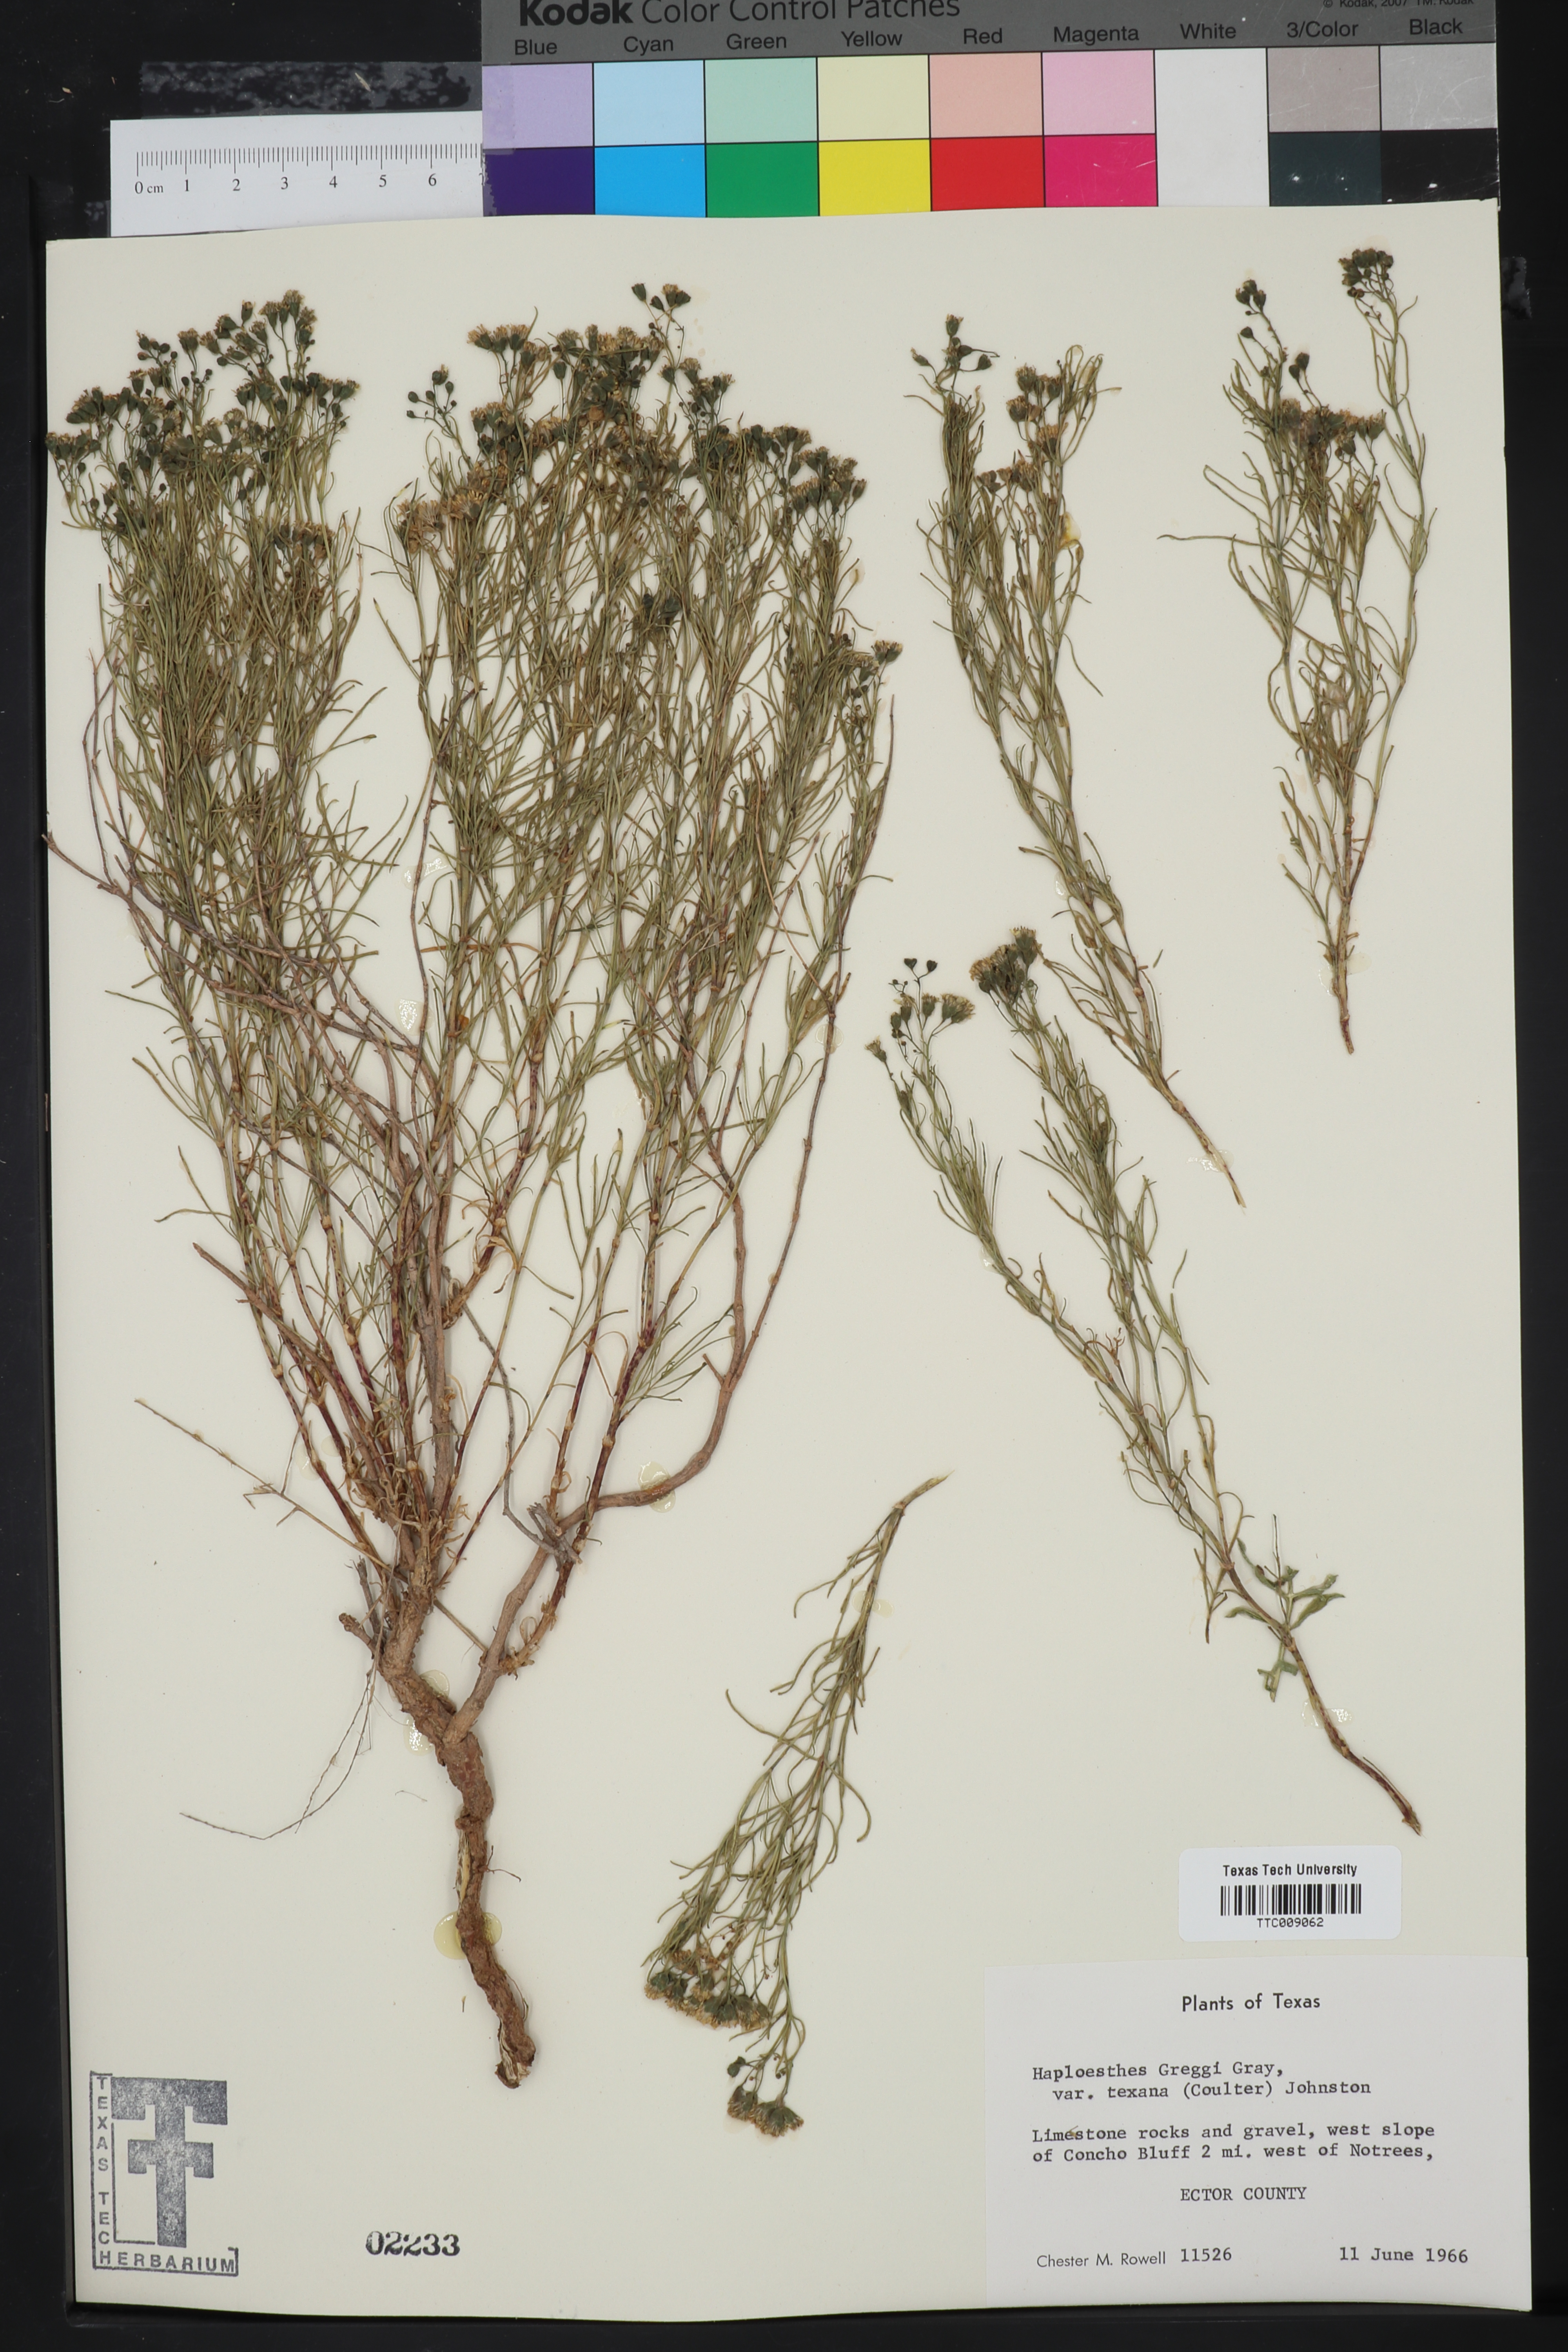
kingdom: Plantae
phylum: Tracheophyta
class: Magnoliopsida
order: Asterales
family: Asteraceae
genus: Haploesthes
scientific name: Haploesthes greggii
